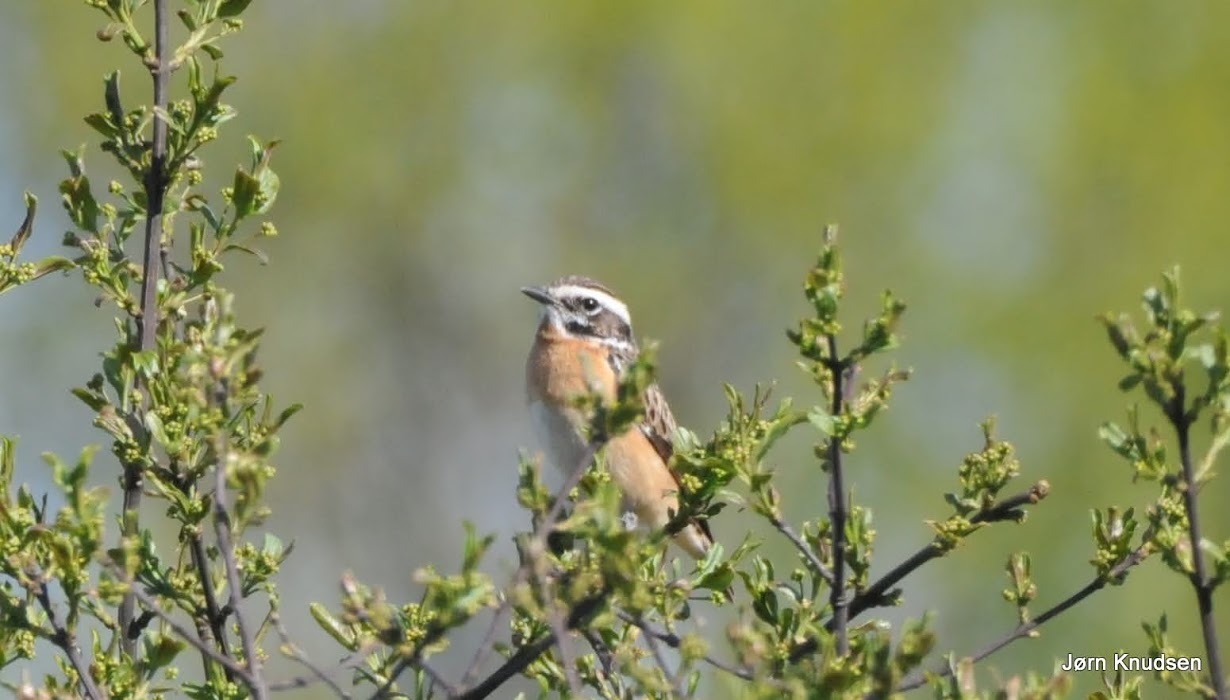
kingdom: Animalia
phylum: Chordata
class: Aves
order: Passeriformes
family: Muscicapidae
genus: Saxicola
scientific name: Saxicola rubetra
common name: Bynkefugl
